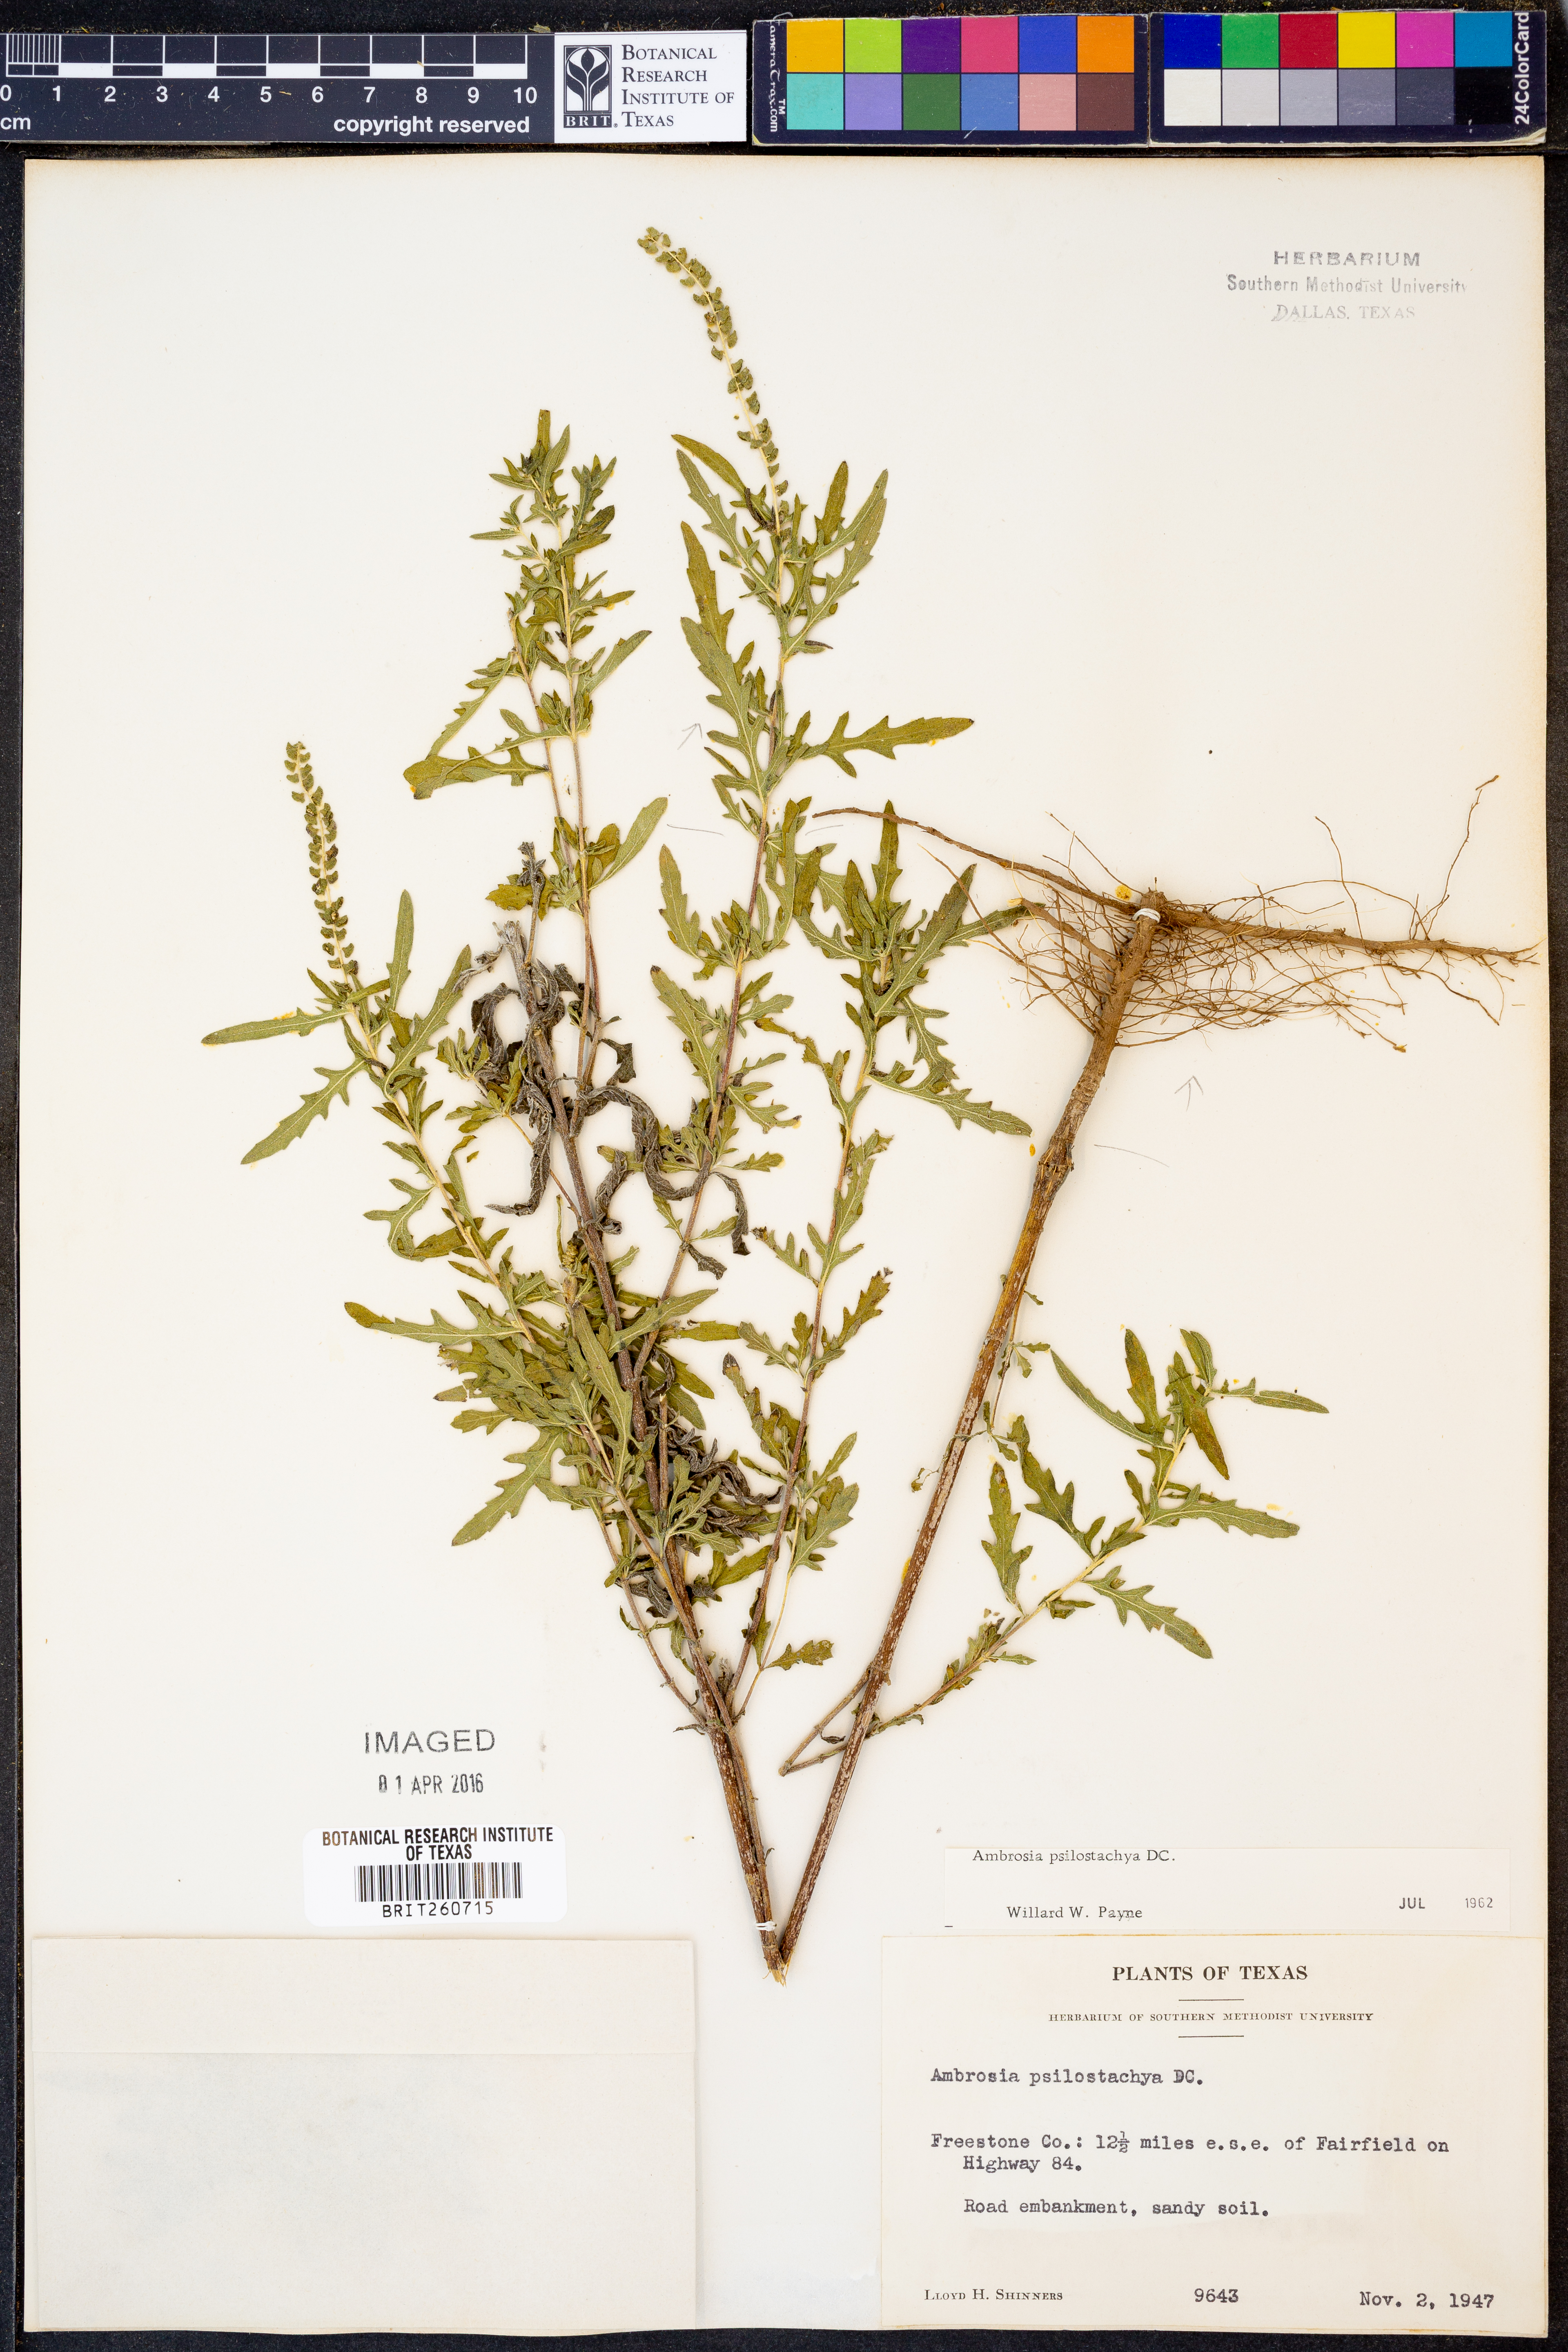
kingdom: Plantae
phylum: Tracheophyta
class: Magnoliopsida
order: Asterales
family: Asteraceae
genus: Ambrosia
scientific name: Ambrosia psilostachya
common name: Perennial ragweed
